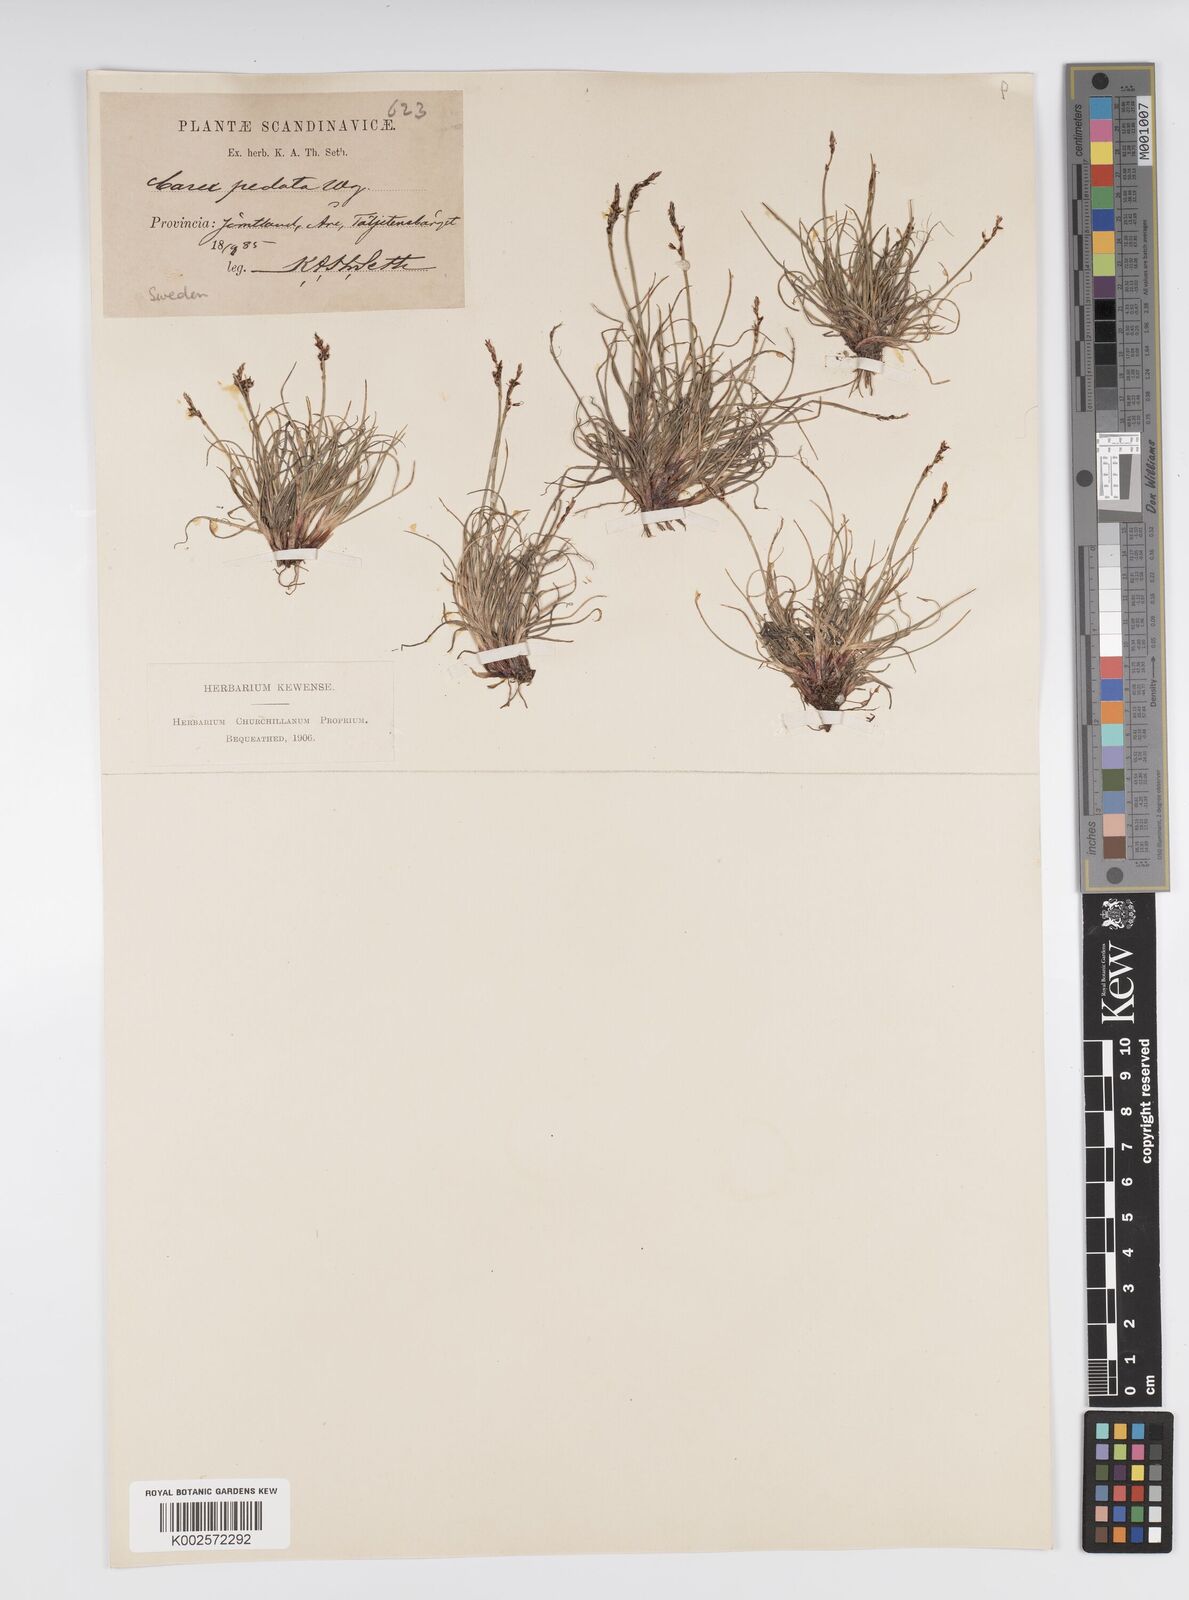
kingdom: Plantae
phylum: Tracheophyta
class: Liliopsida
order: Poales
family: Cyperaceae
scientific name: Cyperaceae
